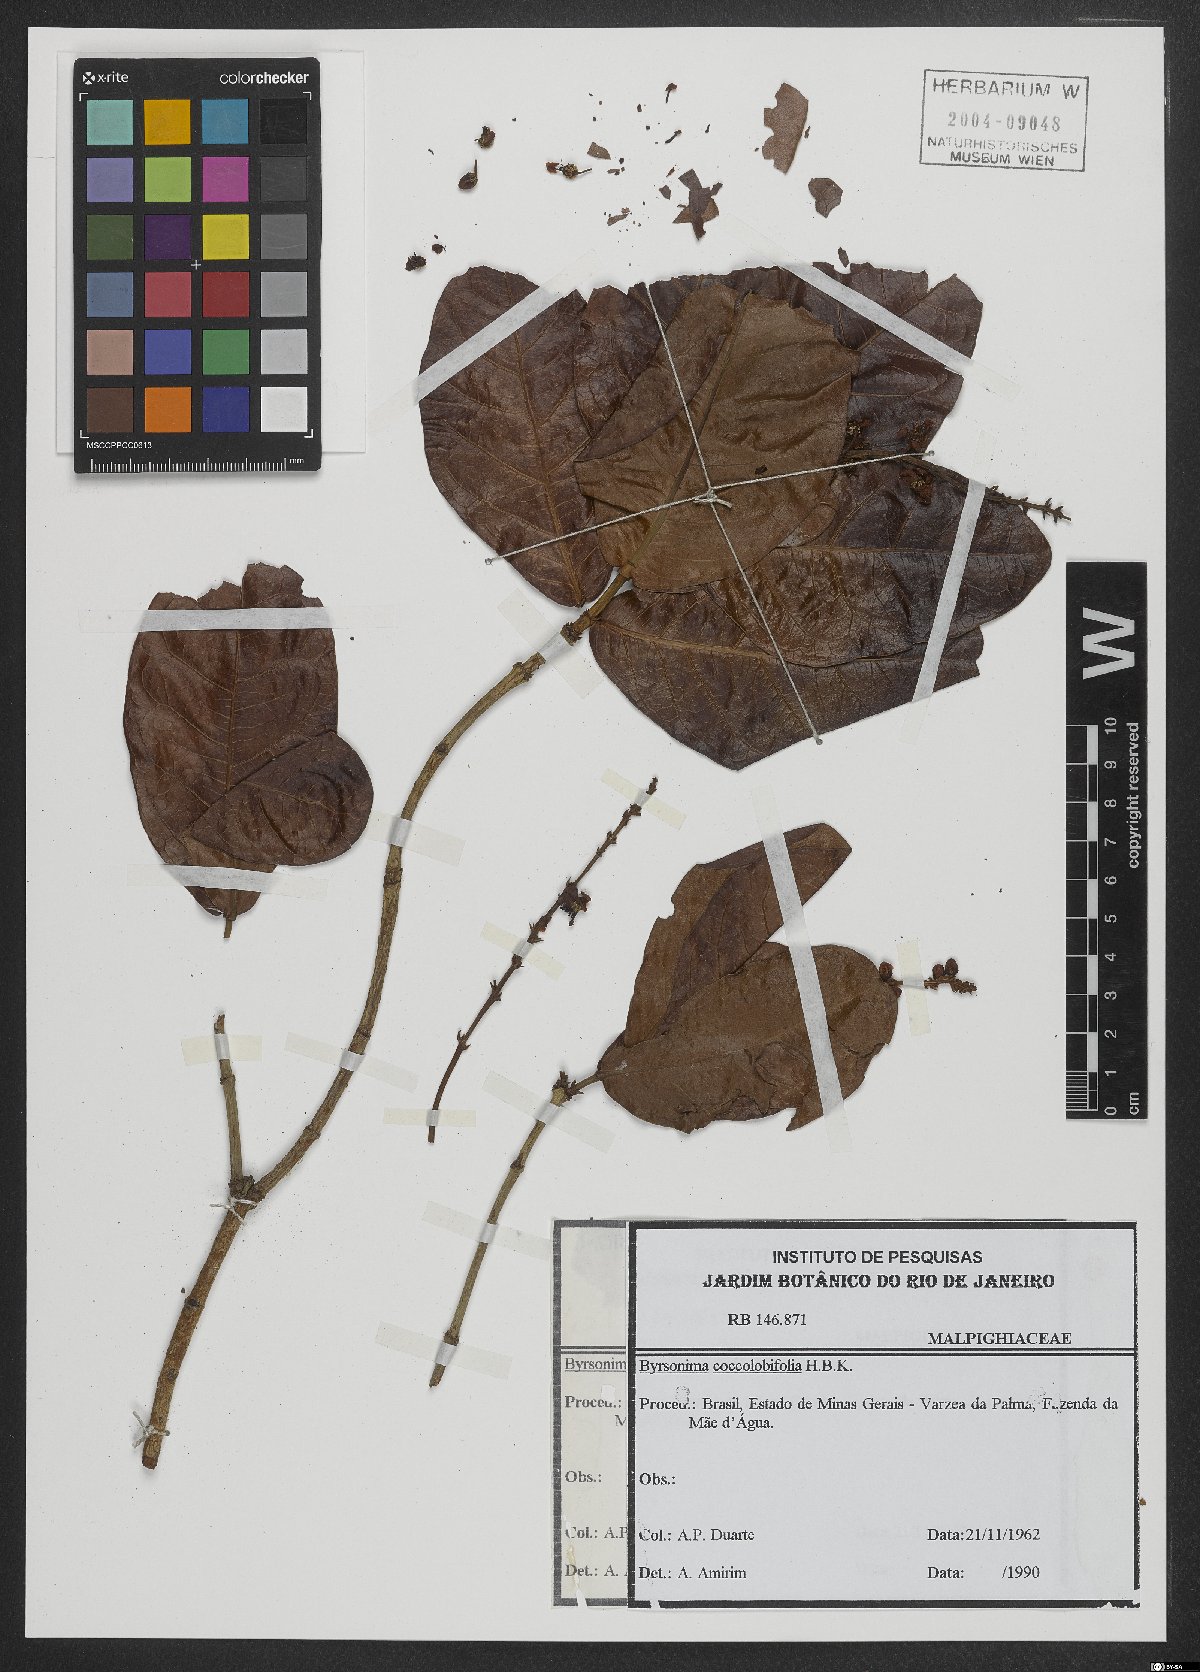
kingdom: Plantae
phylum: Tracheophyta
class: Magnoliopsida
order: Malpighiales
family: Malpighiaceae
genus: Byrsonima
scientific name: Byrsonima coccolobifolia
